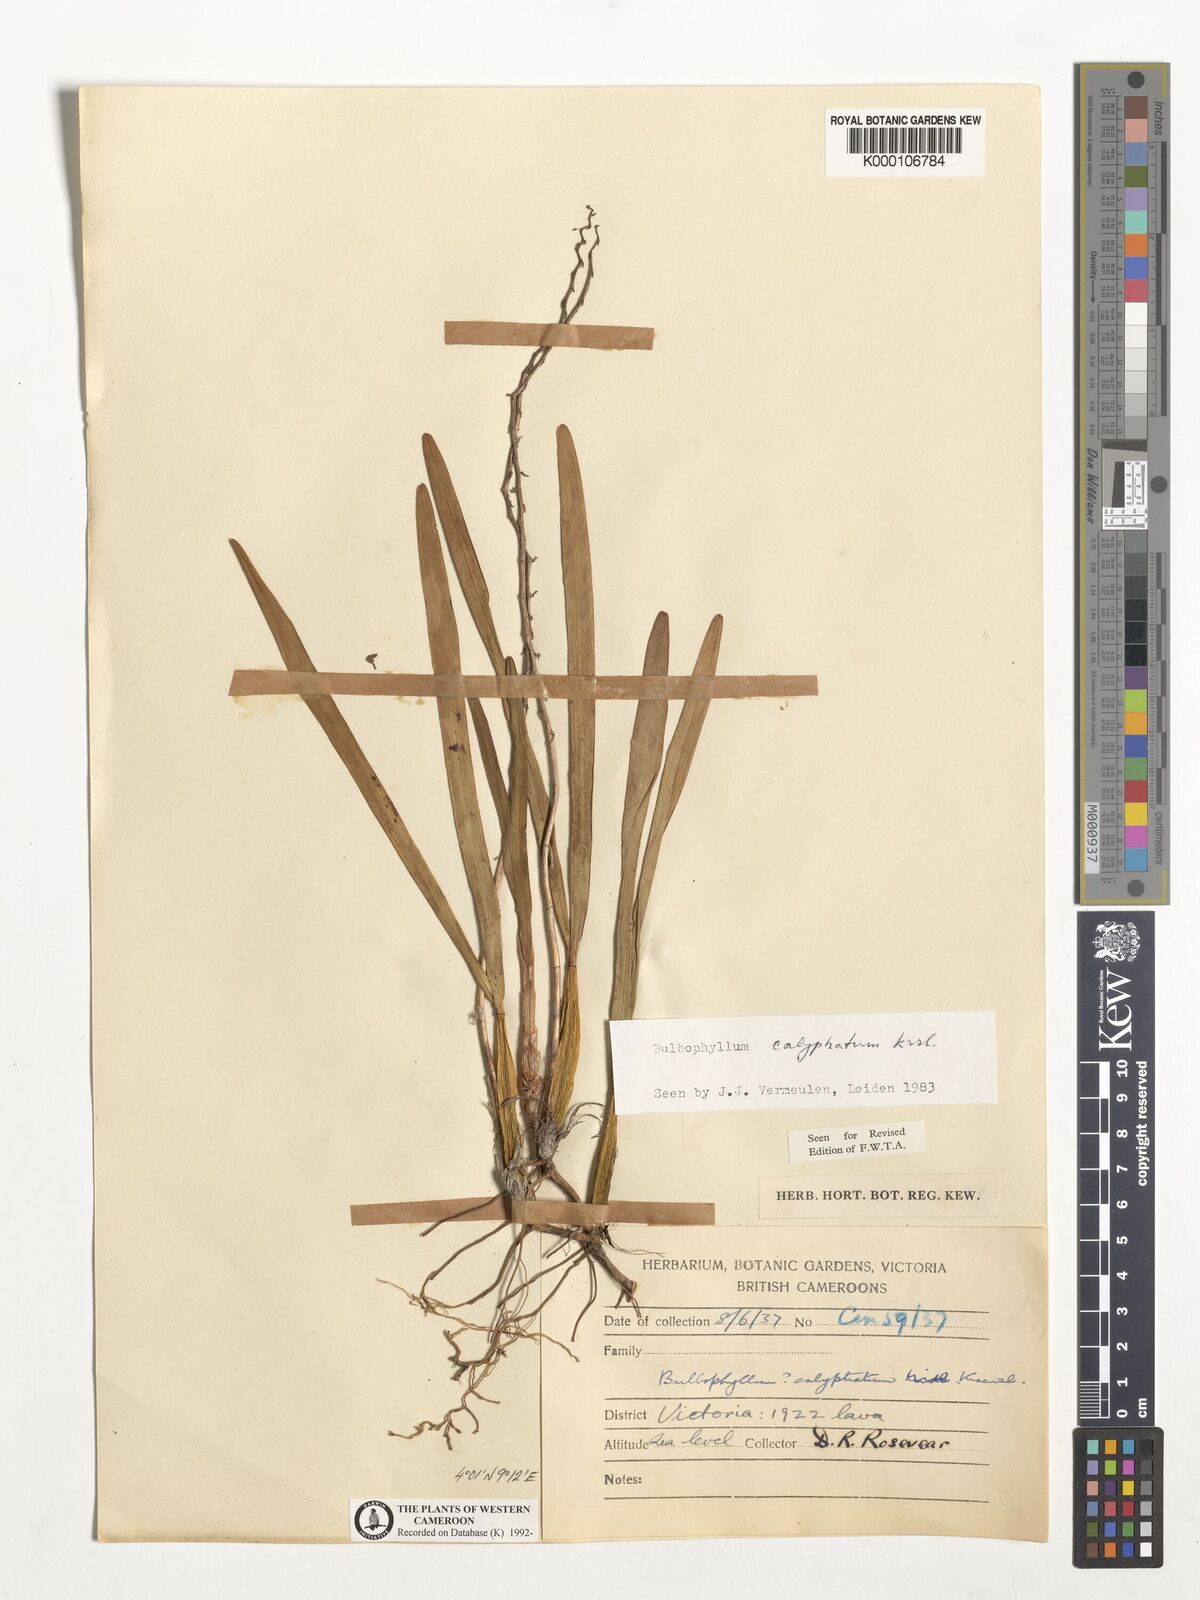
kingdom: Plantae
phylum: Tracheophyta
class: Liliopsida
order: Asparagales
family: Orchidaceae
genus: Bulbophyllum
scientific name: Bulbophyllum calyptratum
